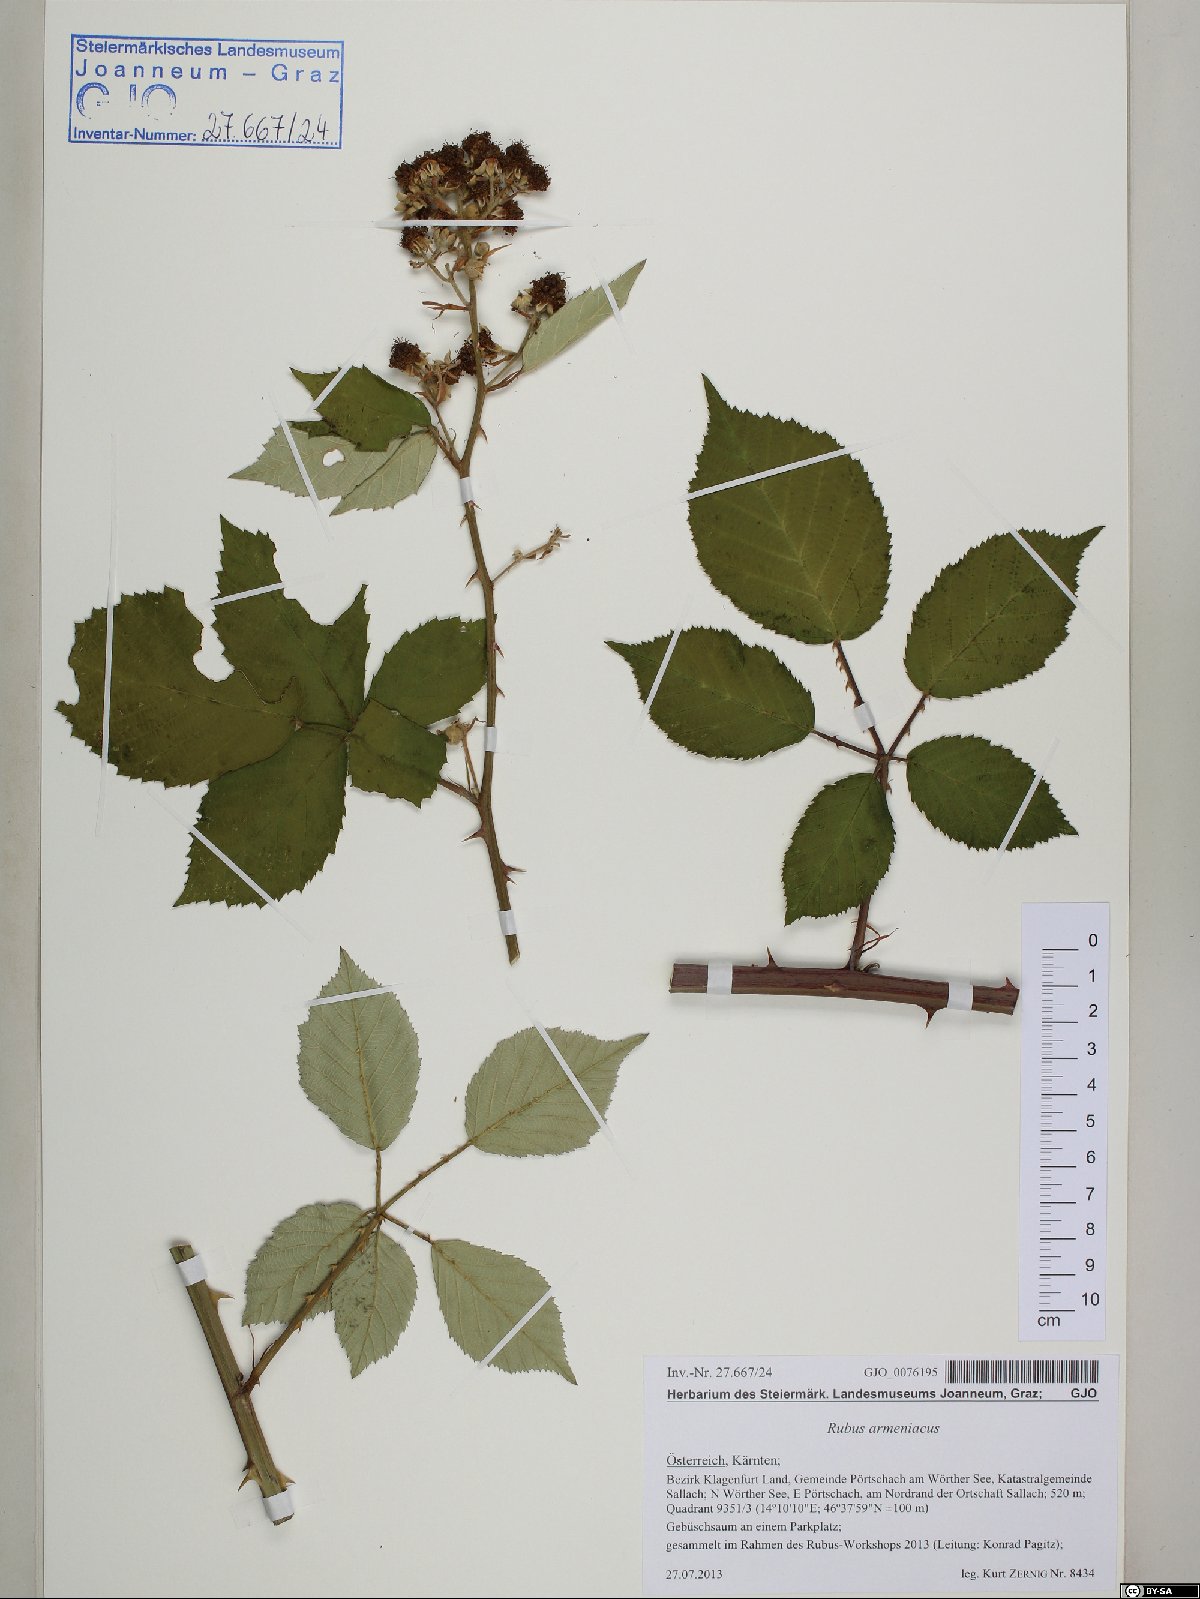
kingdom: Plantae
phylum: Tracheophyta
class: Magnoliopsida
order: Rosales
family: Rosaceae
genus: Rubus
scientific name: Rubus armeniacus
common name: Himalayan blackberry
